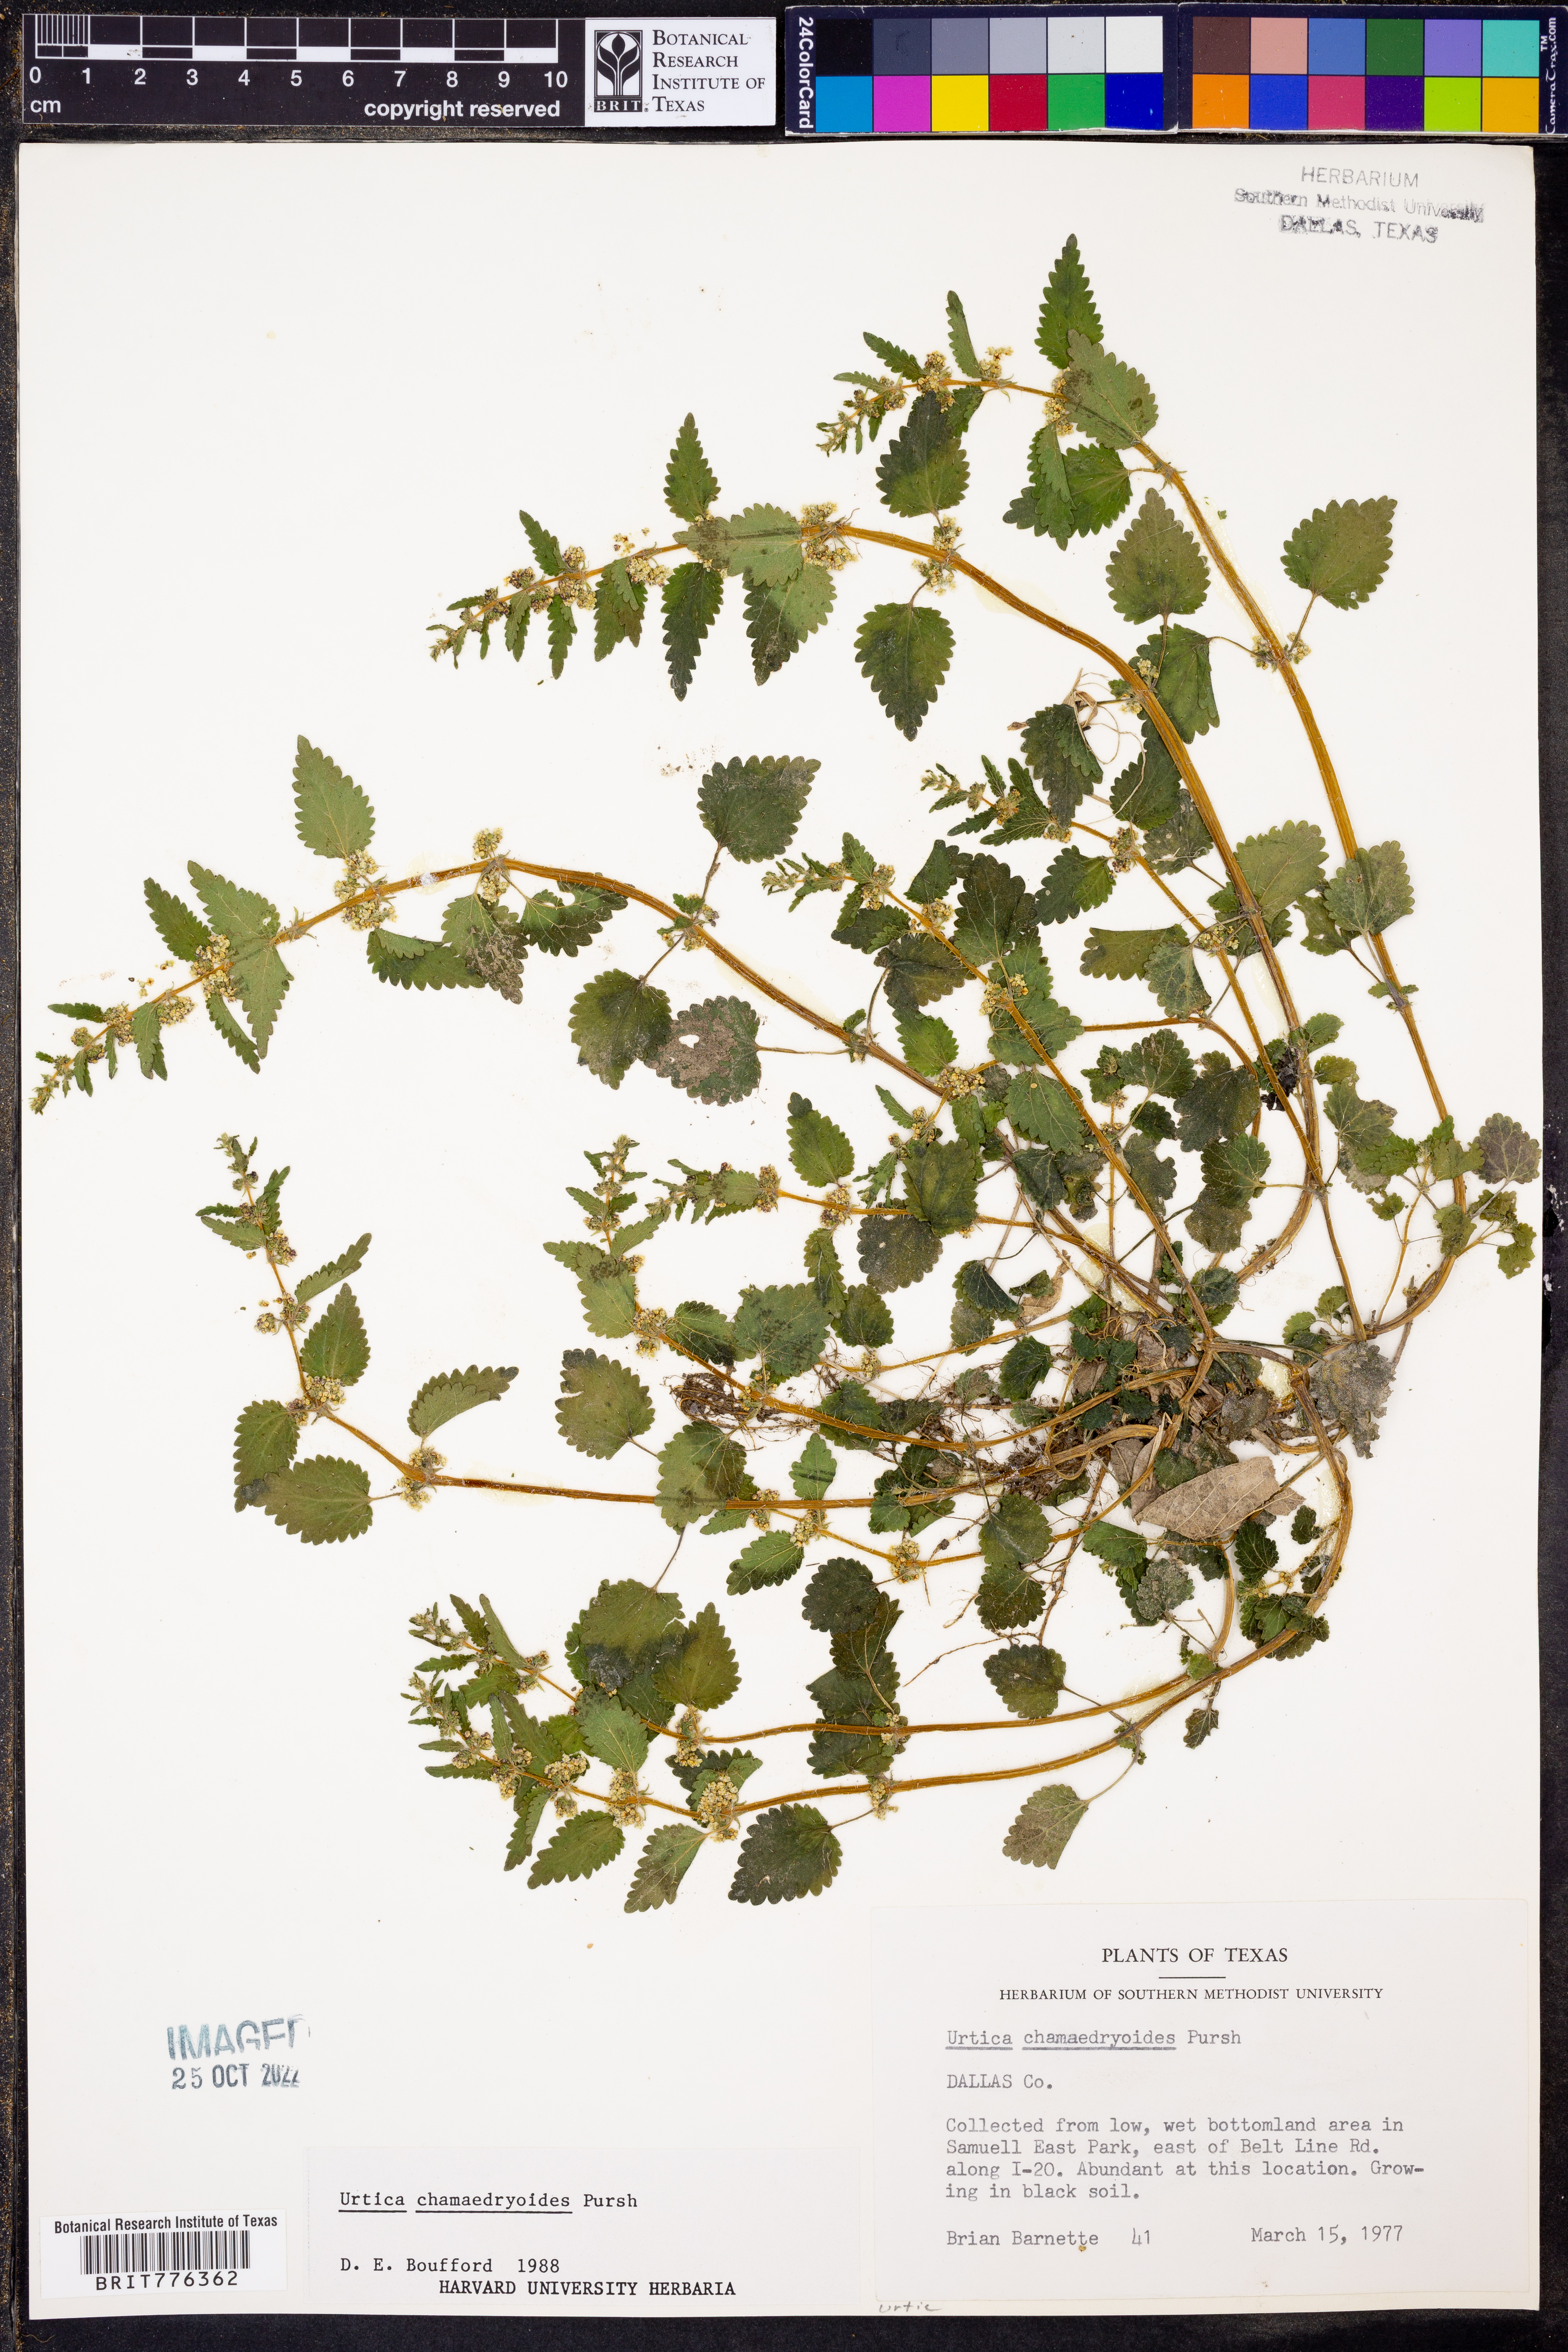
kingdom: Plantae
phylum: Tracheophyta
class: Magnoliopsida
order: Rosales
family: Urticaceae
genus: Urtica
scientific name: Urtica chamaedryoides
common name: Heart-leaf nettle
